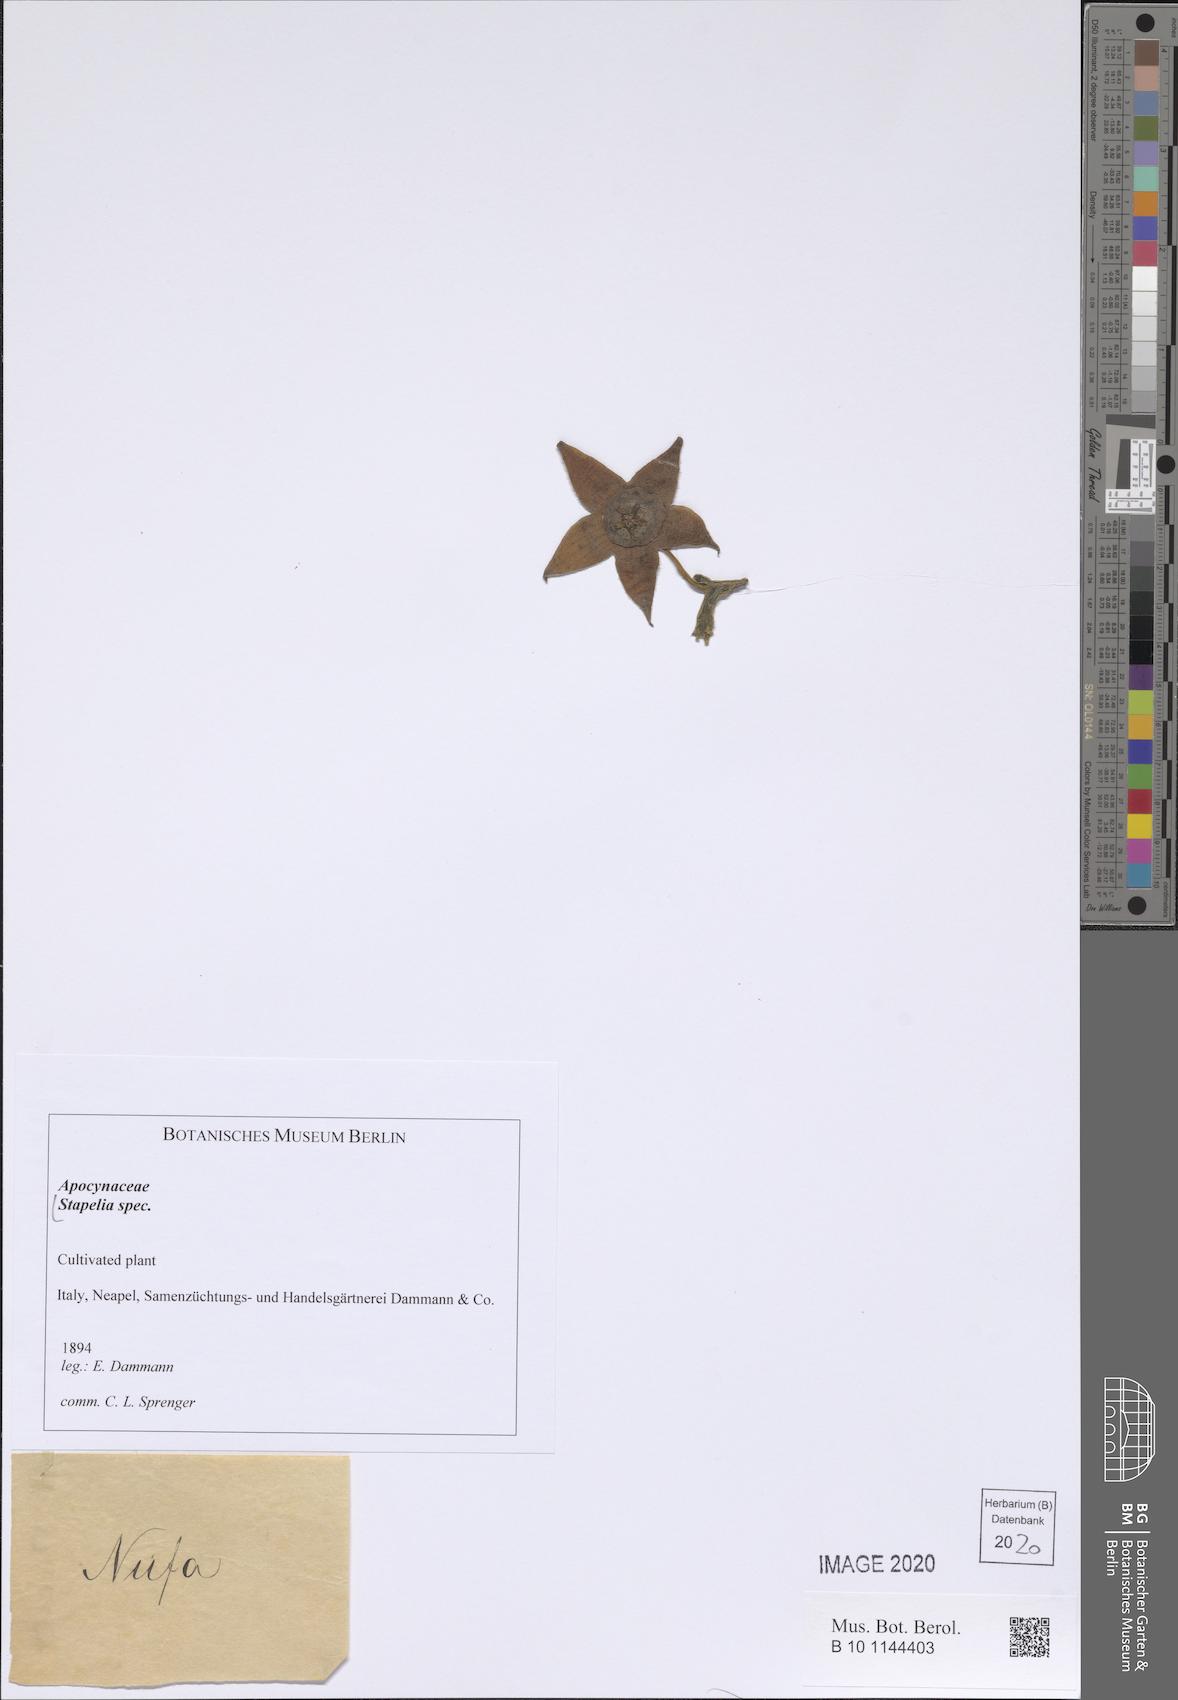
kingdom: Plantae
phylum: Tracheophyta
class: Magnoliopsida
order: Gentianales
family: Apocynaceae
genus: Stapelia
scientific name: Stapelia
